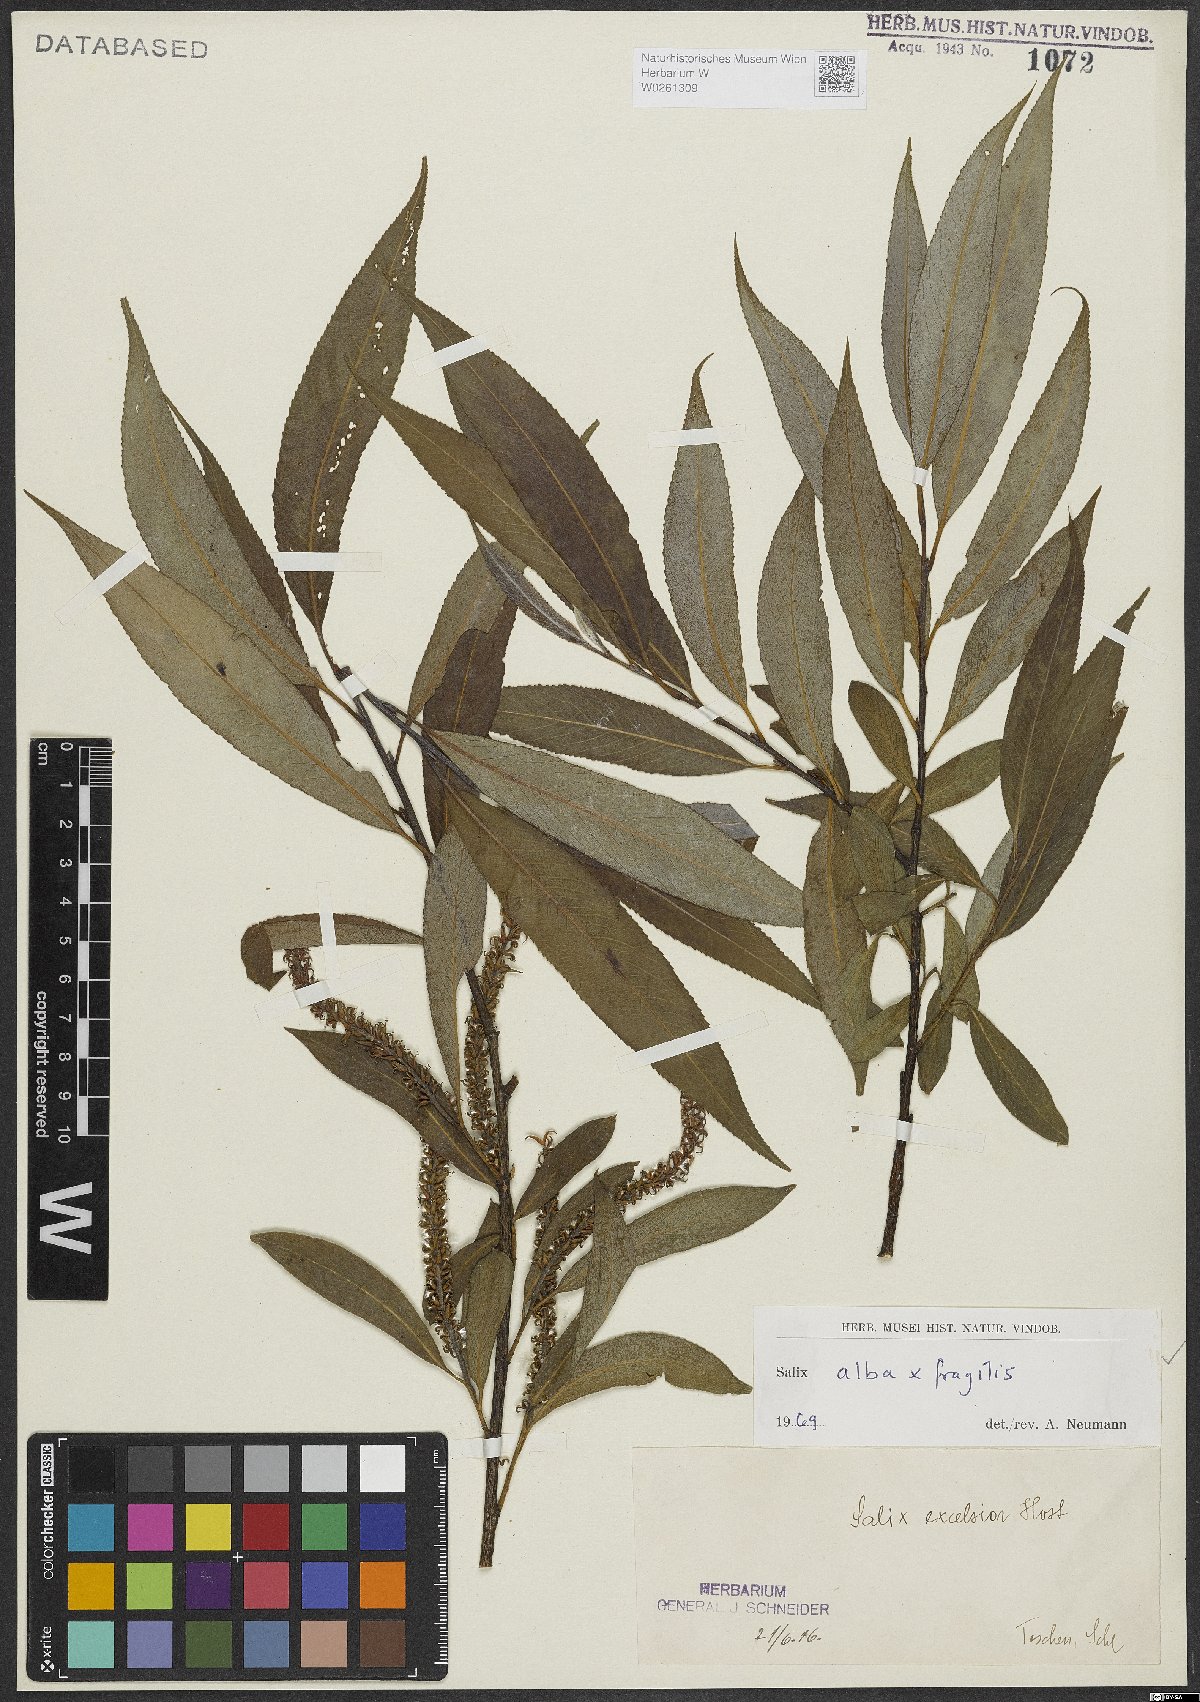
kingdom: Plantae
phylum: Tracheophyta
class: Magnoliopsida
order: Malpighiales
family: Salicaceae
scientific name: Salicaceae
